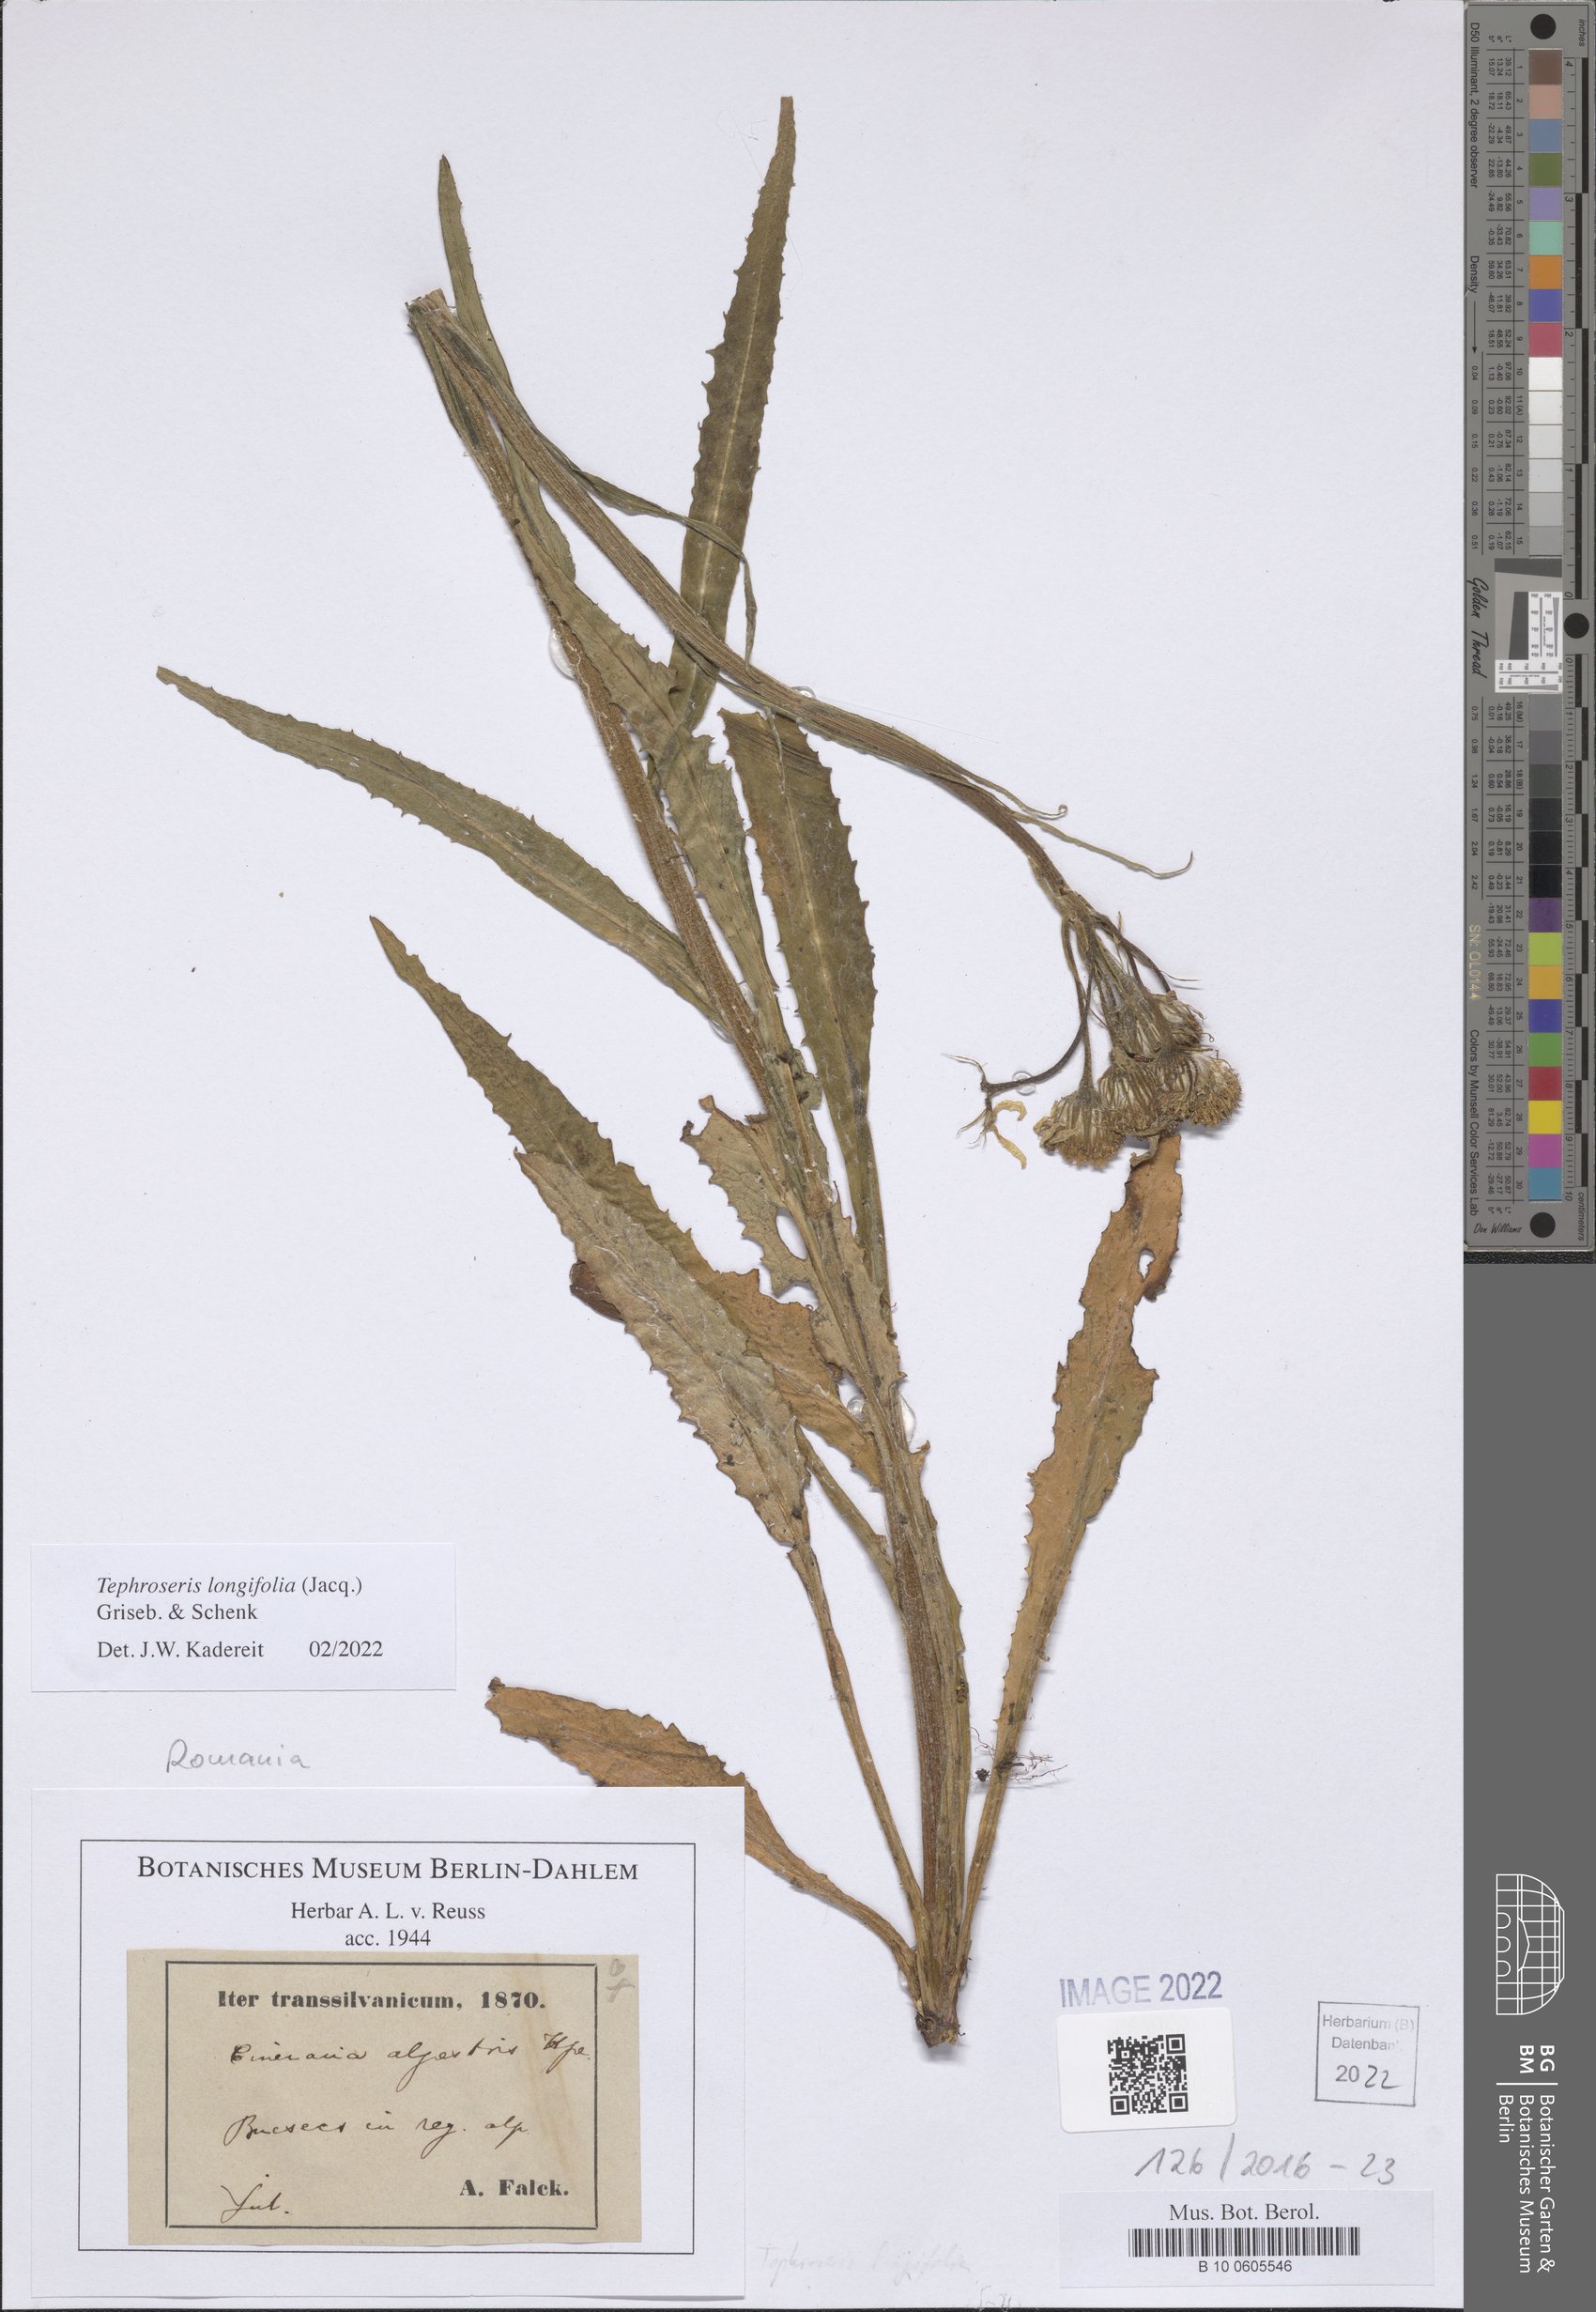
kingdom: Plantae
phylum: Tracheophyta
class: Magnoliopsida
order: Asterales
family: Asteraceae
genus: Tephroseris
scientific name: Tephroseris longifolia
